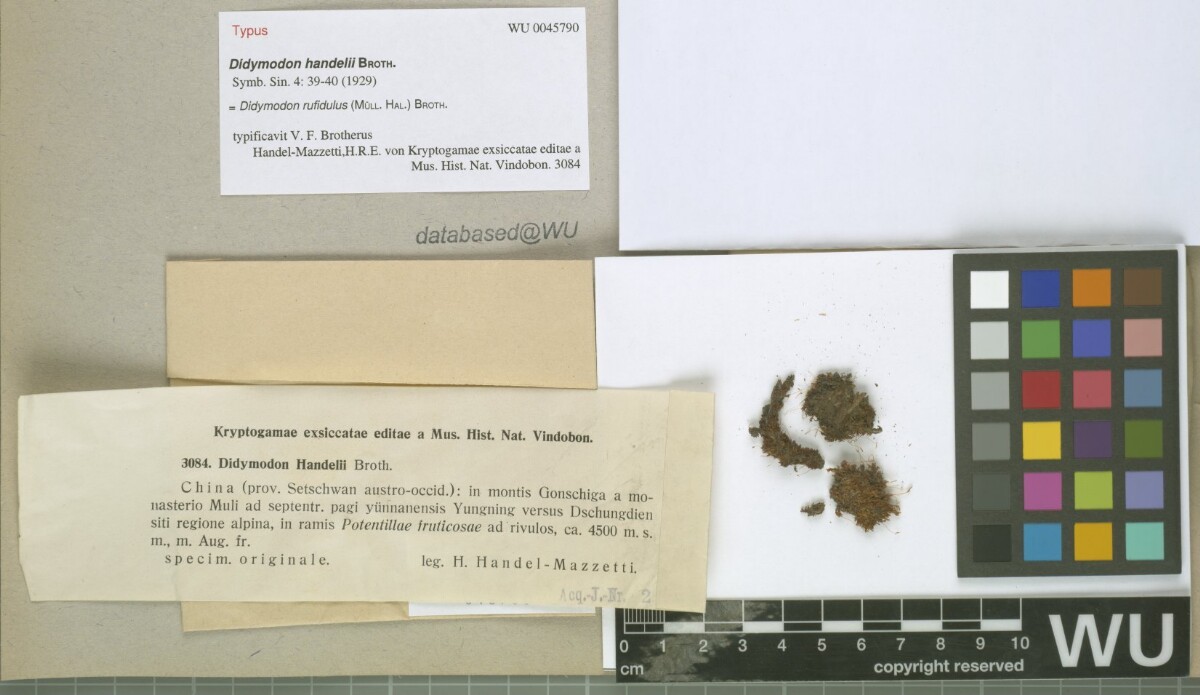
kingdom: Plantae
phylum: Bryophyta
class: Bryopsida
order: Pottiales
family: Pottiaceae
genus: Husnotiella
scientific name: Husnotiella rufidula
